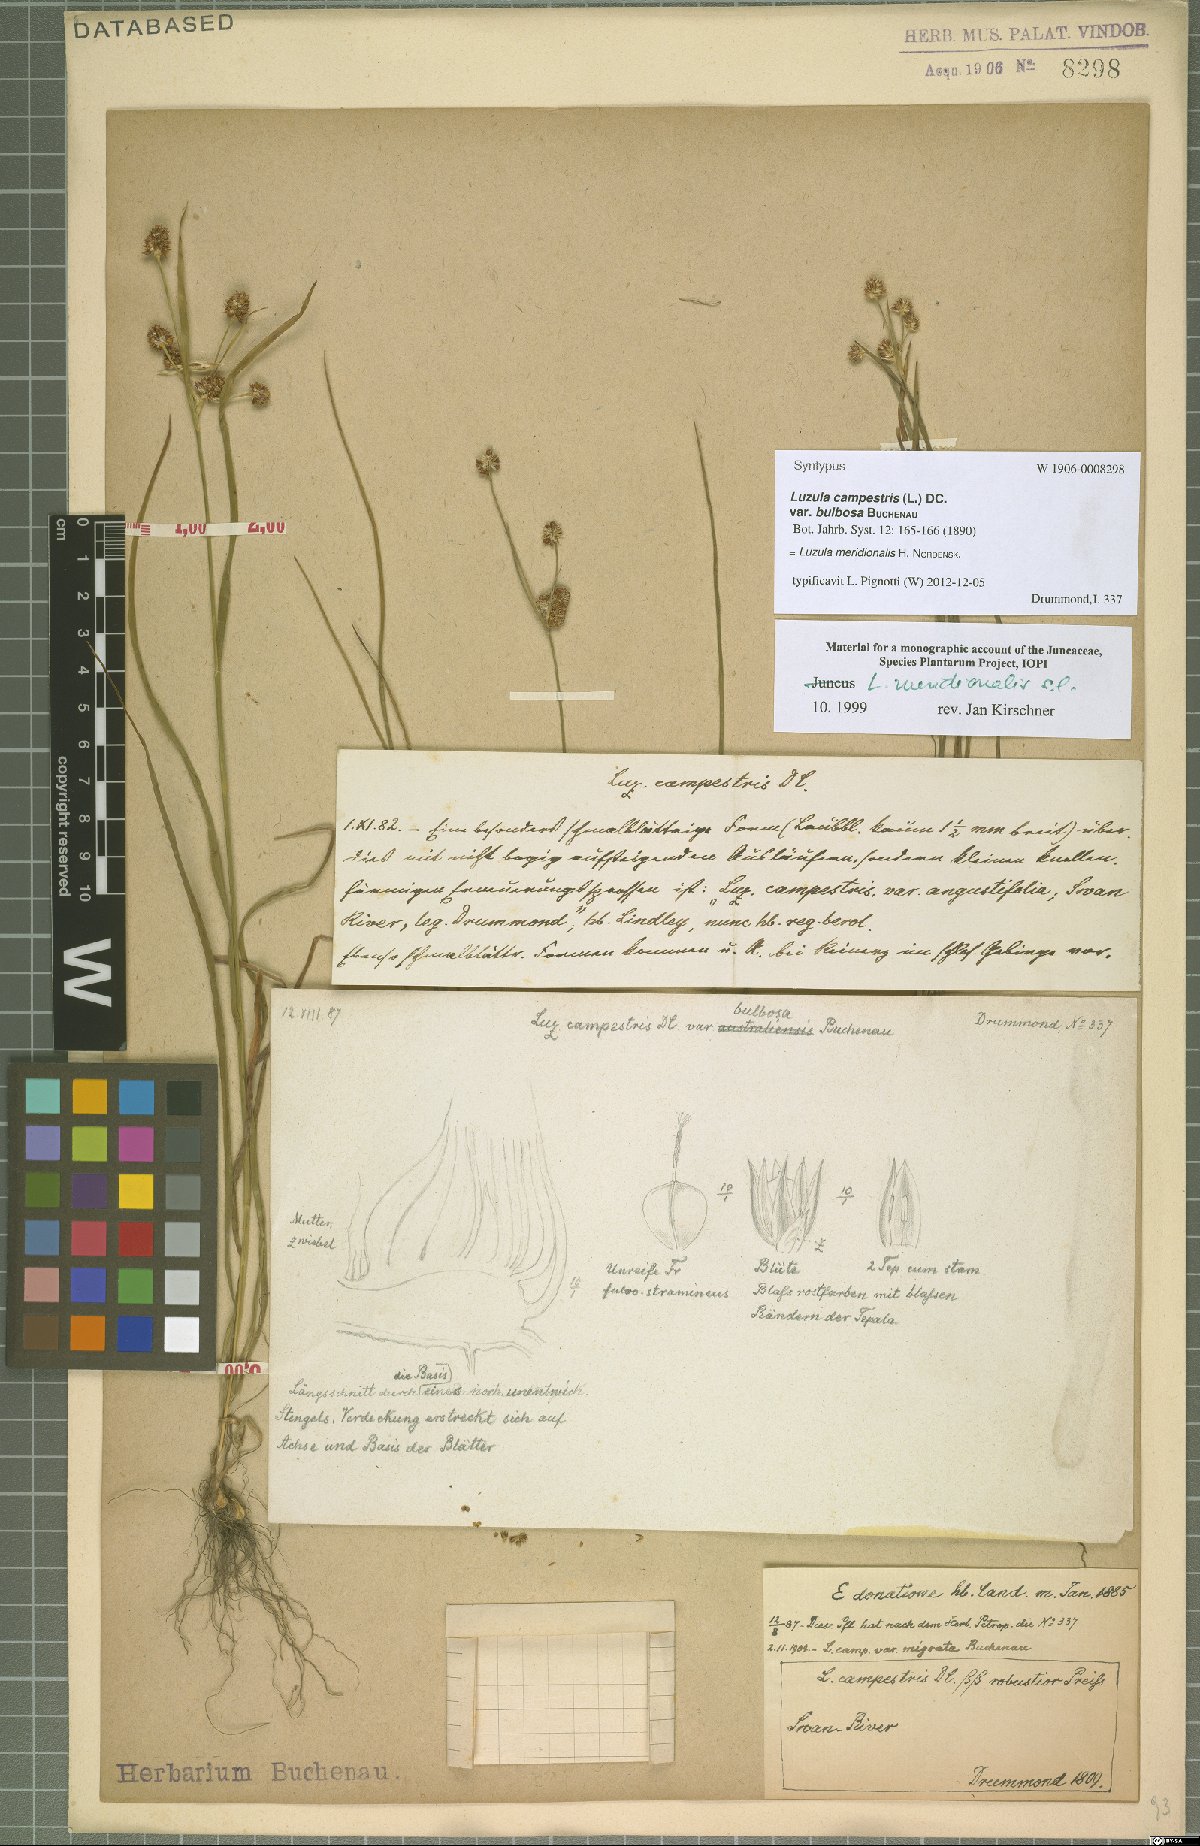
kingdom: Plantae
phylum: Tracheophyta
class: Liliopsida
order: Poales
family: Juncaceae
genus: Luzula
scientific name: Luzula meridionalis
